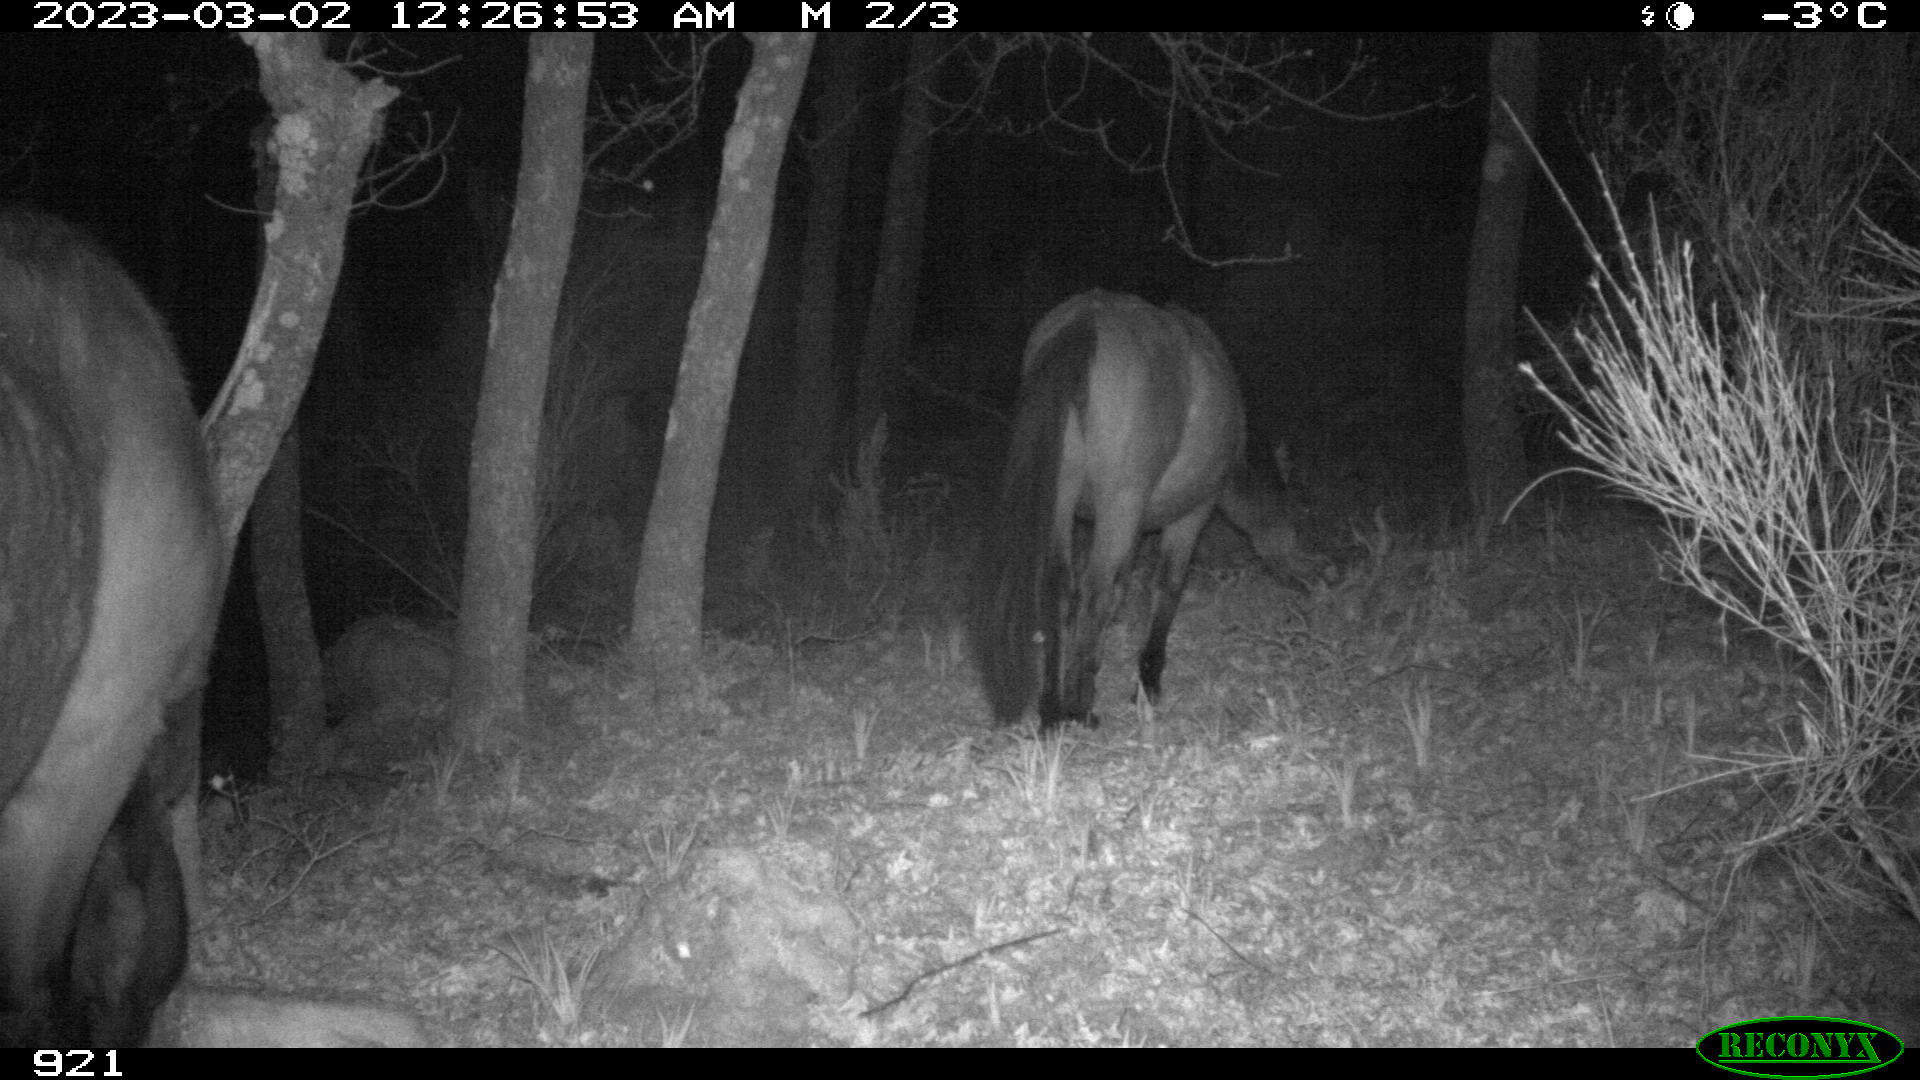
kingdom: Animalia
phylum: Chordata
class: Mammalia
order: Perissodactyla
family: Equidae
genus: Equus
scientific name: Equus caballus
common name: Horse
